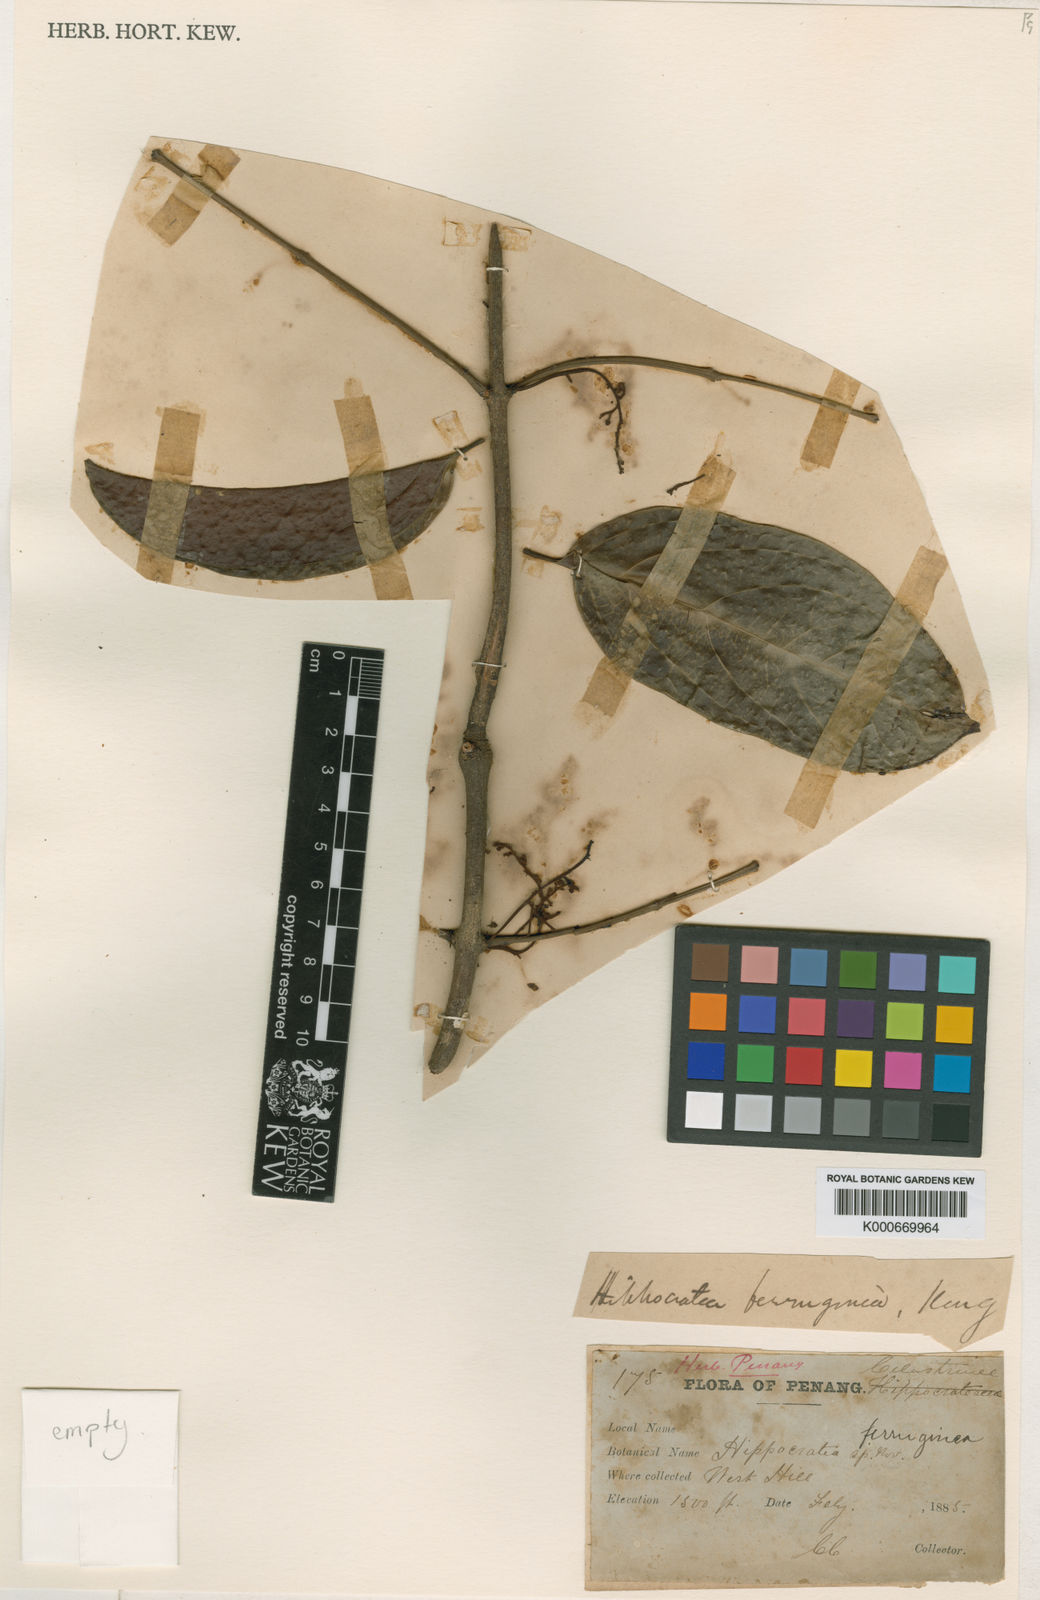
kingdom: Plantae
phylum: Tracheophyta
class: Magnoliopsida
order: Celastrales
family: Celastraceae
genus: Reissantia
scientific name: Reissantia
